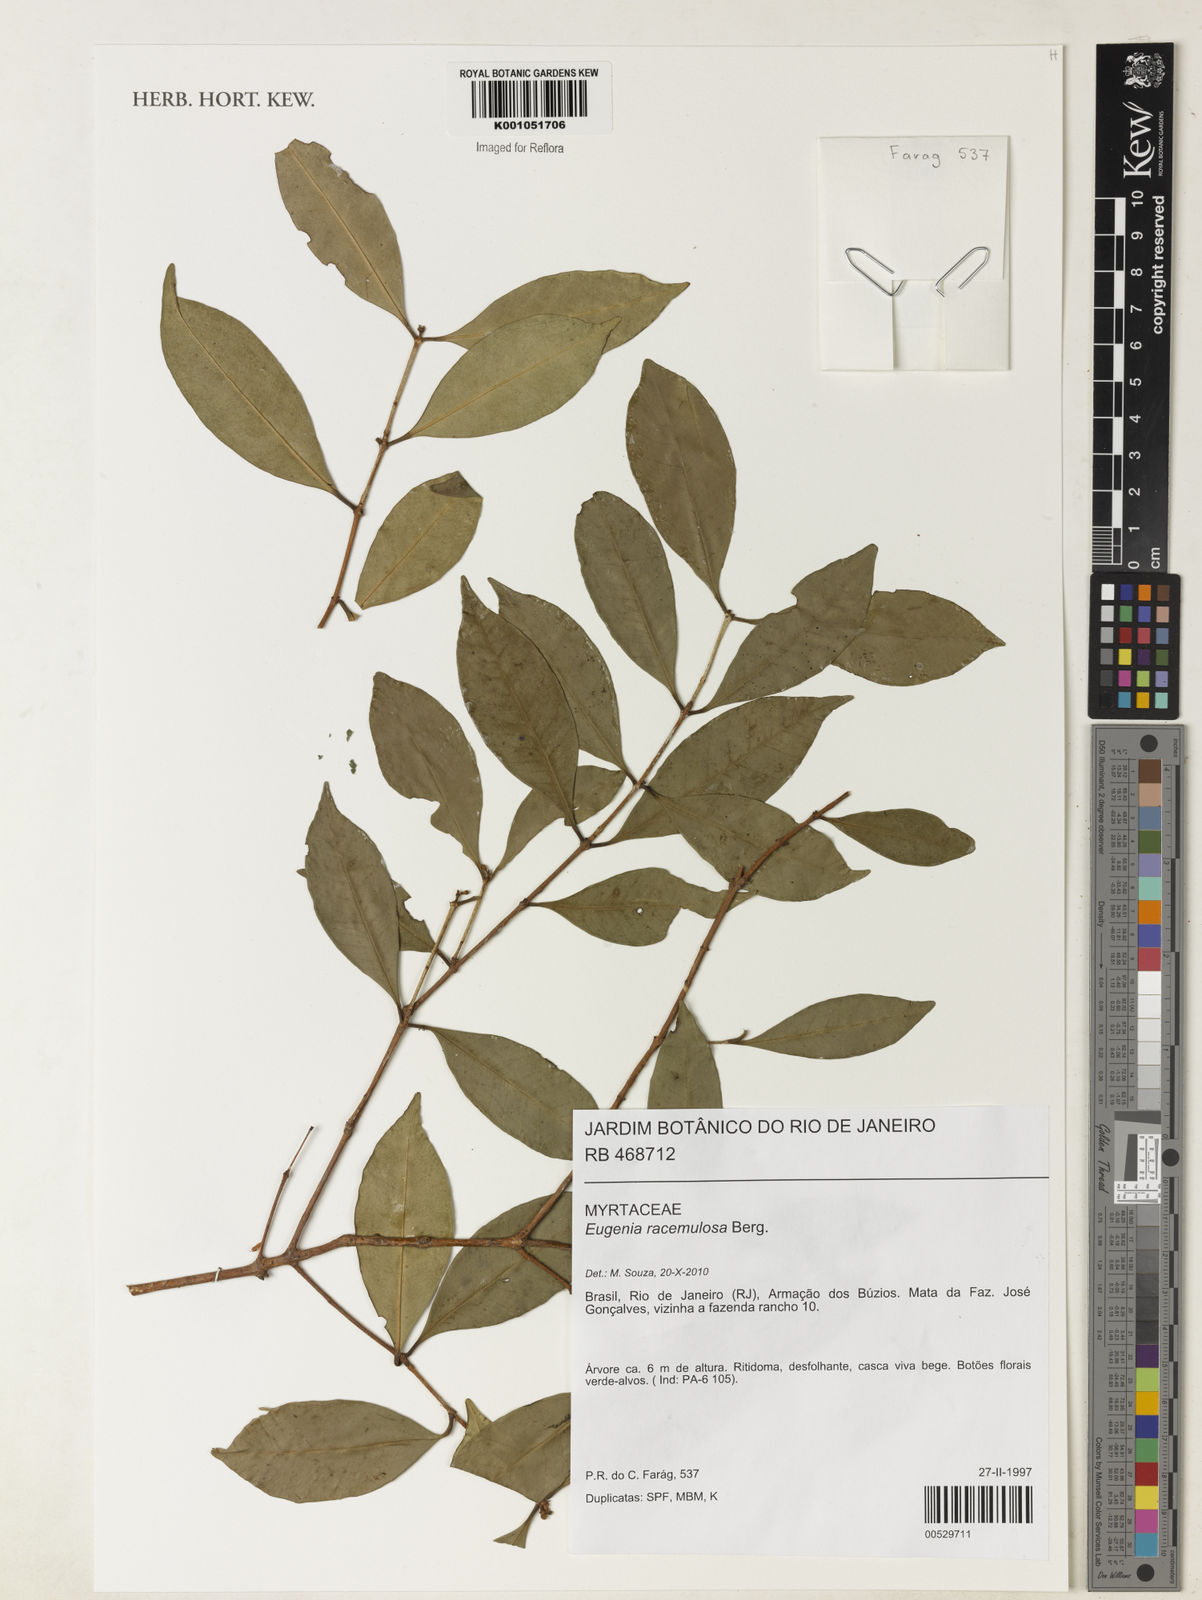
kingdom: Plantae
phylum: Tracheophyta
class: Magnoliopsida
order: Myrtales
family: Myrtaceae
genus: Eugenia
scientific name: Eugenia modesta
